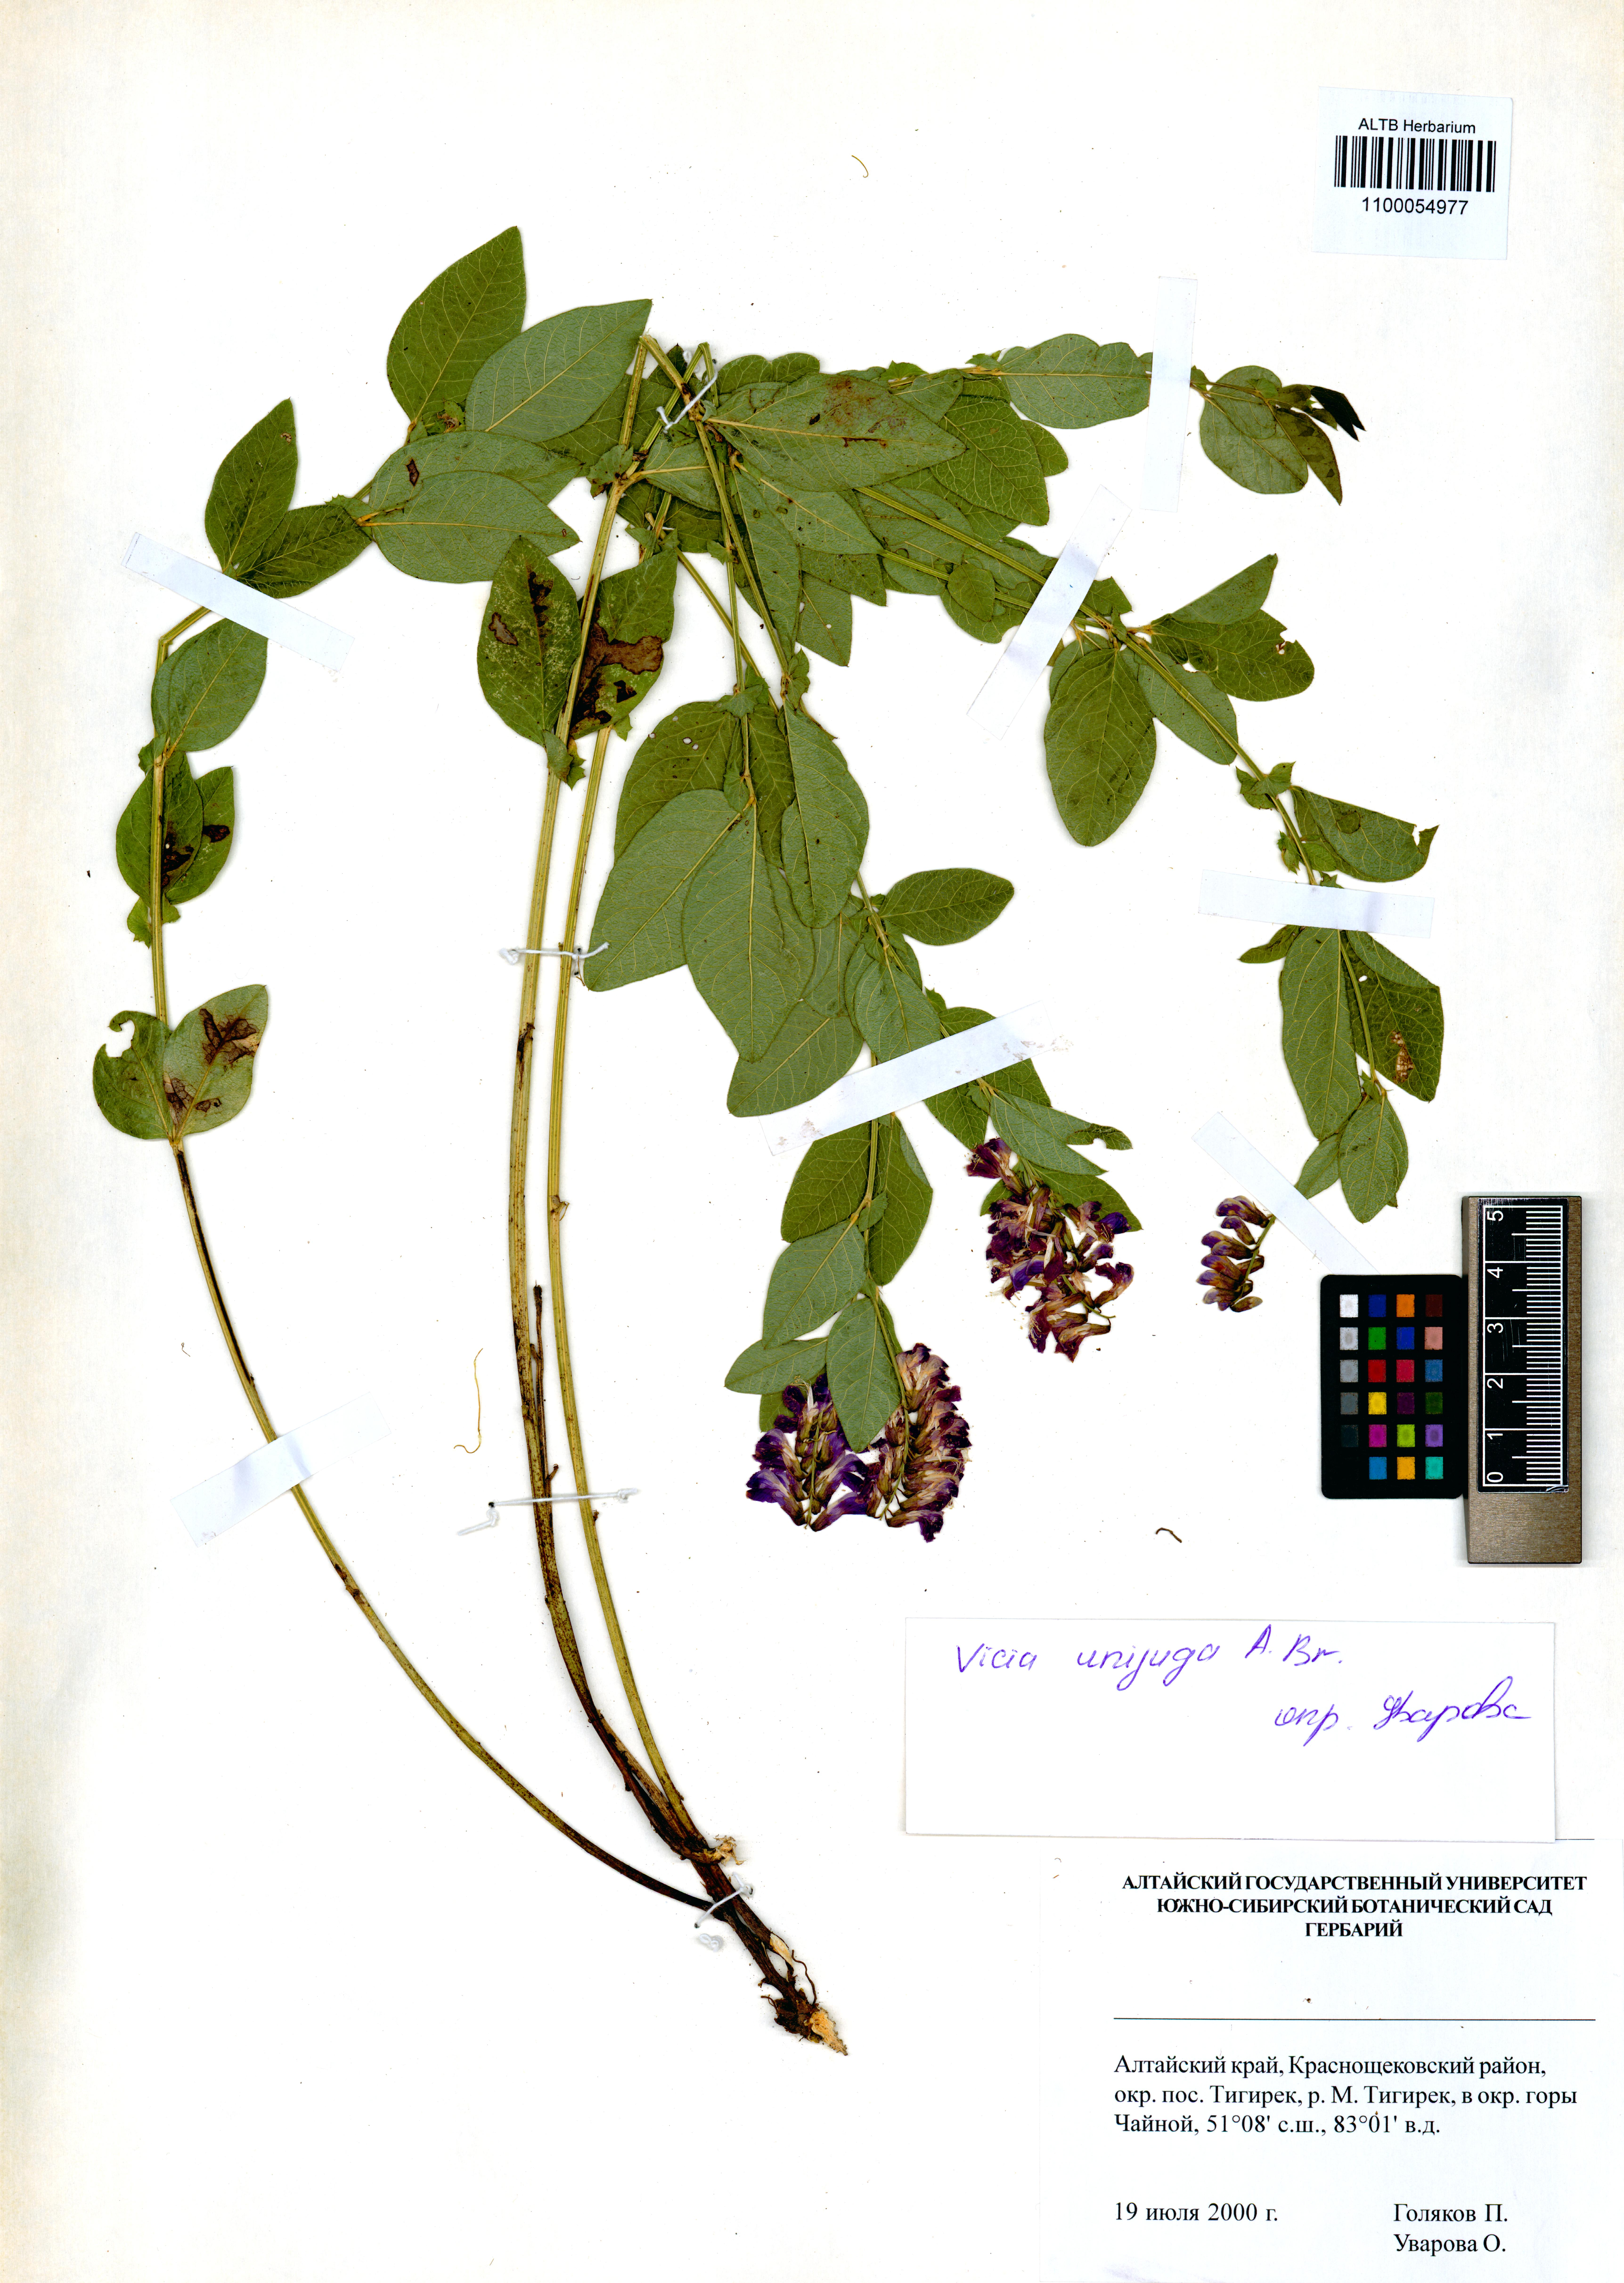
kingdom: Plantae
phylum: Tracheophyta
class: Magnoliopsida
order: Fabales
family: Fabaceae
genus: Vicia
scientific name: Vicia unijuga
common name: Two-leaf vetch
